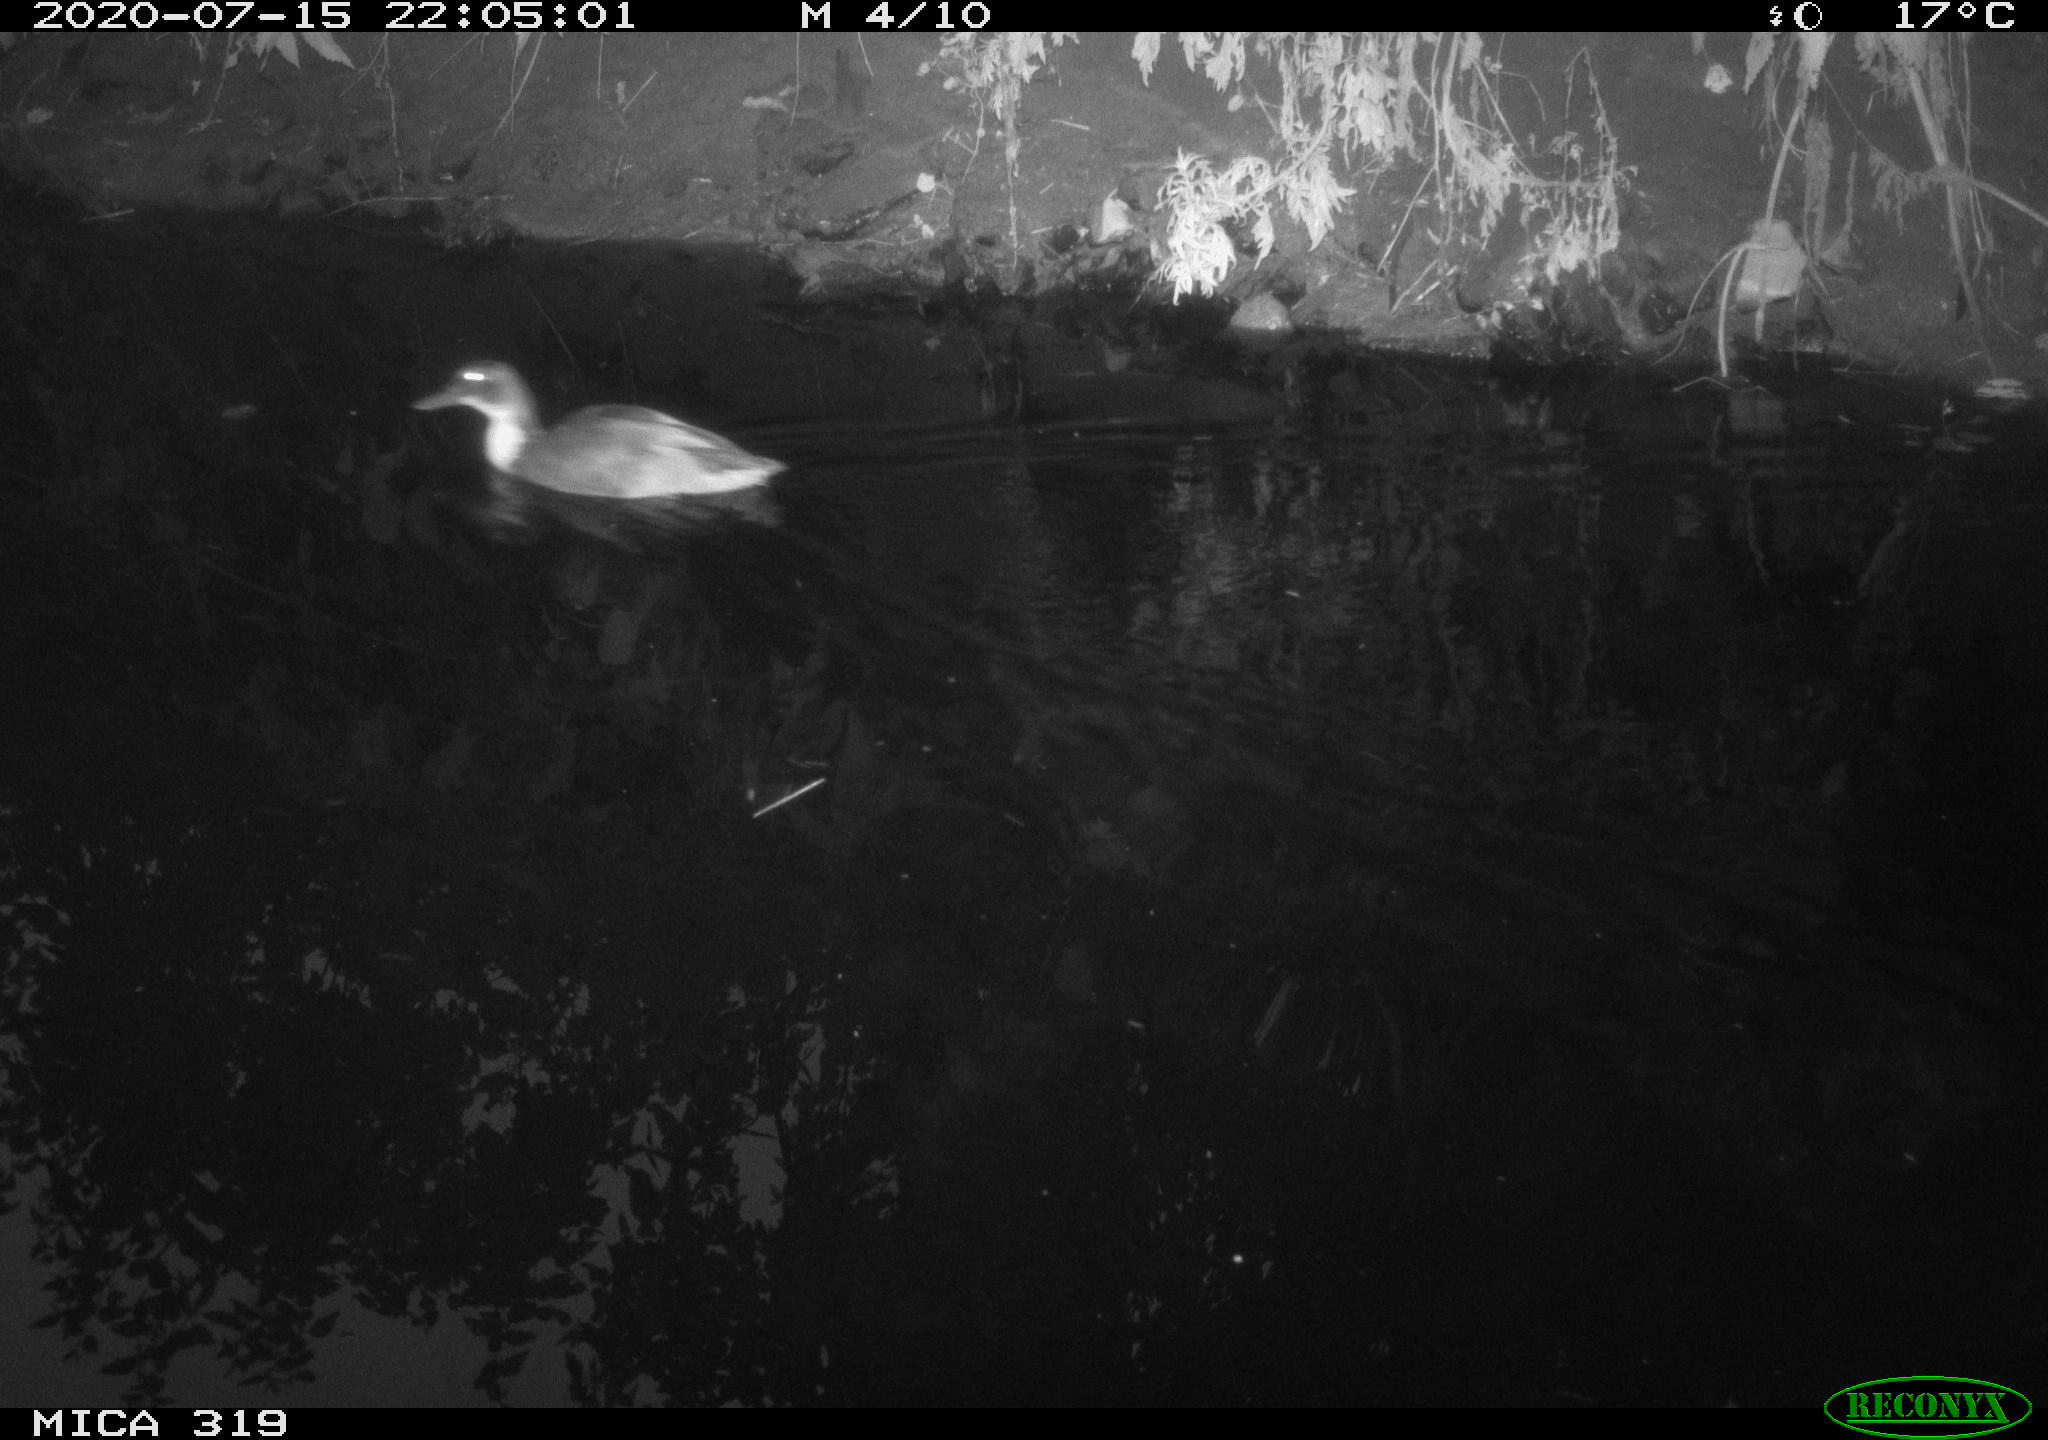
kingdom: Animalia
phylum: Chordata
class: Aves
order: Anseriformes
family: Anatidae
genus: Anas
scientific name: Anas platyrhynchos
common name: Mallard
